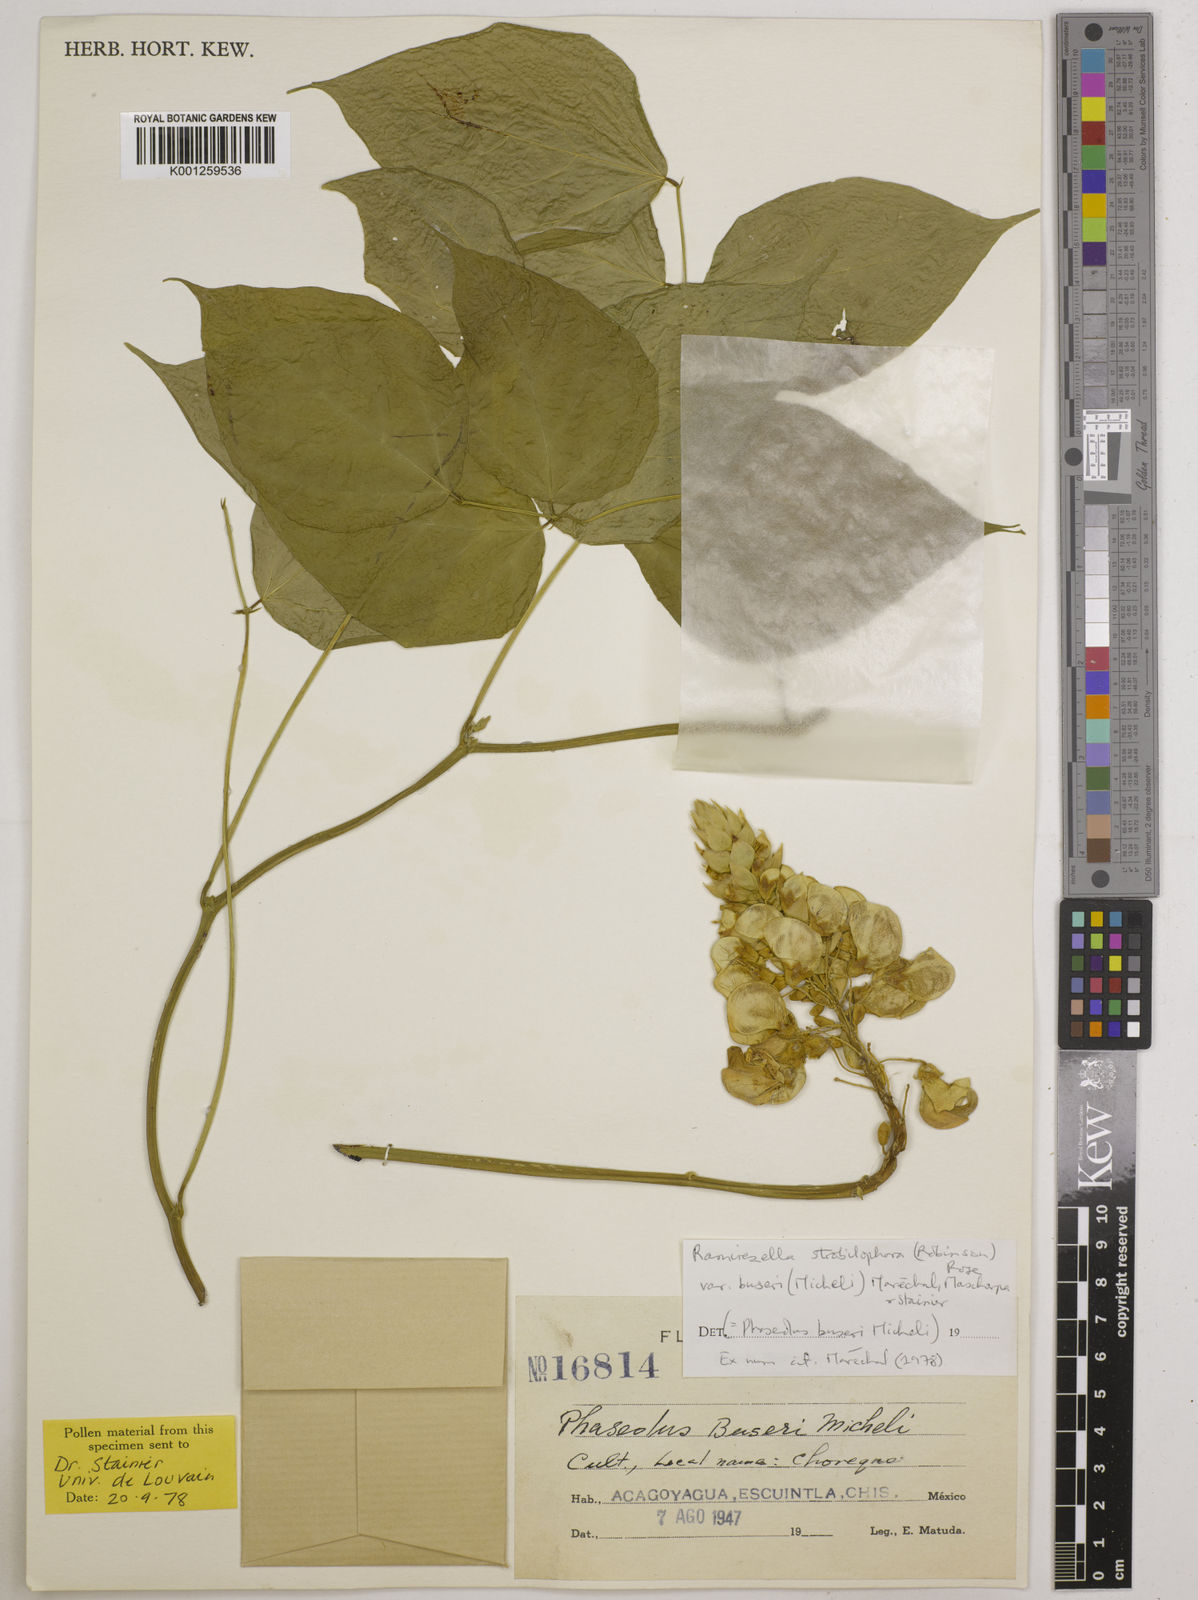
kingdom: Plantae
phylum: Tracheophyta
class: Magnoliopsida
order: Fabales
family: Fabaceae
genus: Ramirezella
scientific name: Ramirezella strobilophora
